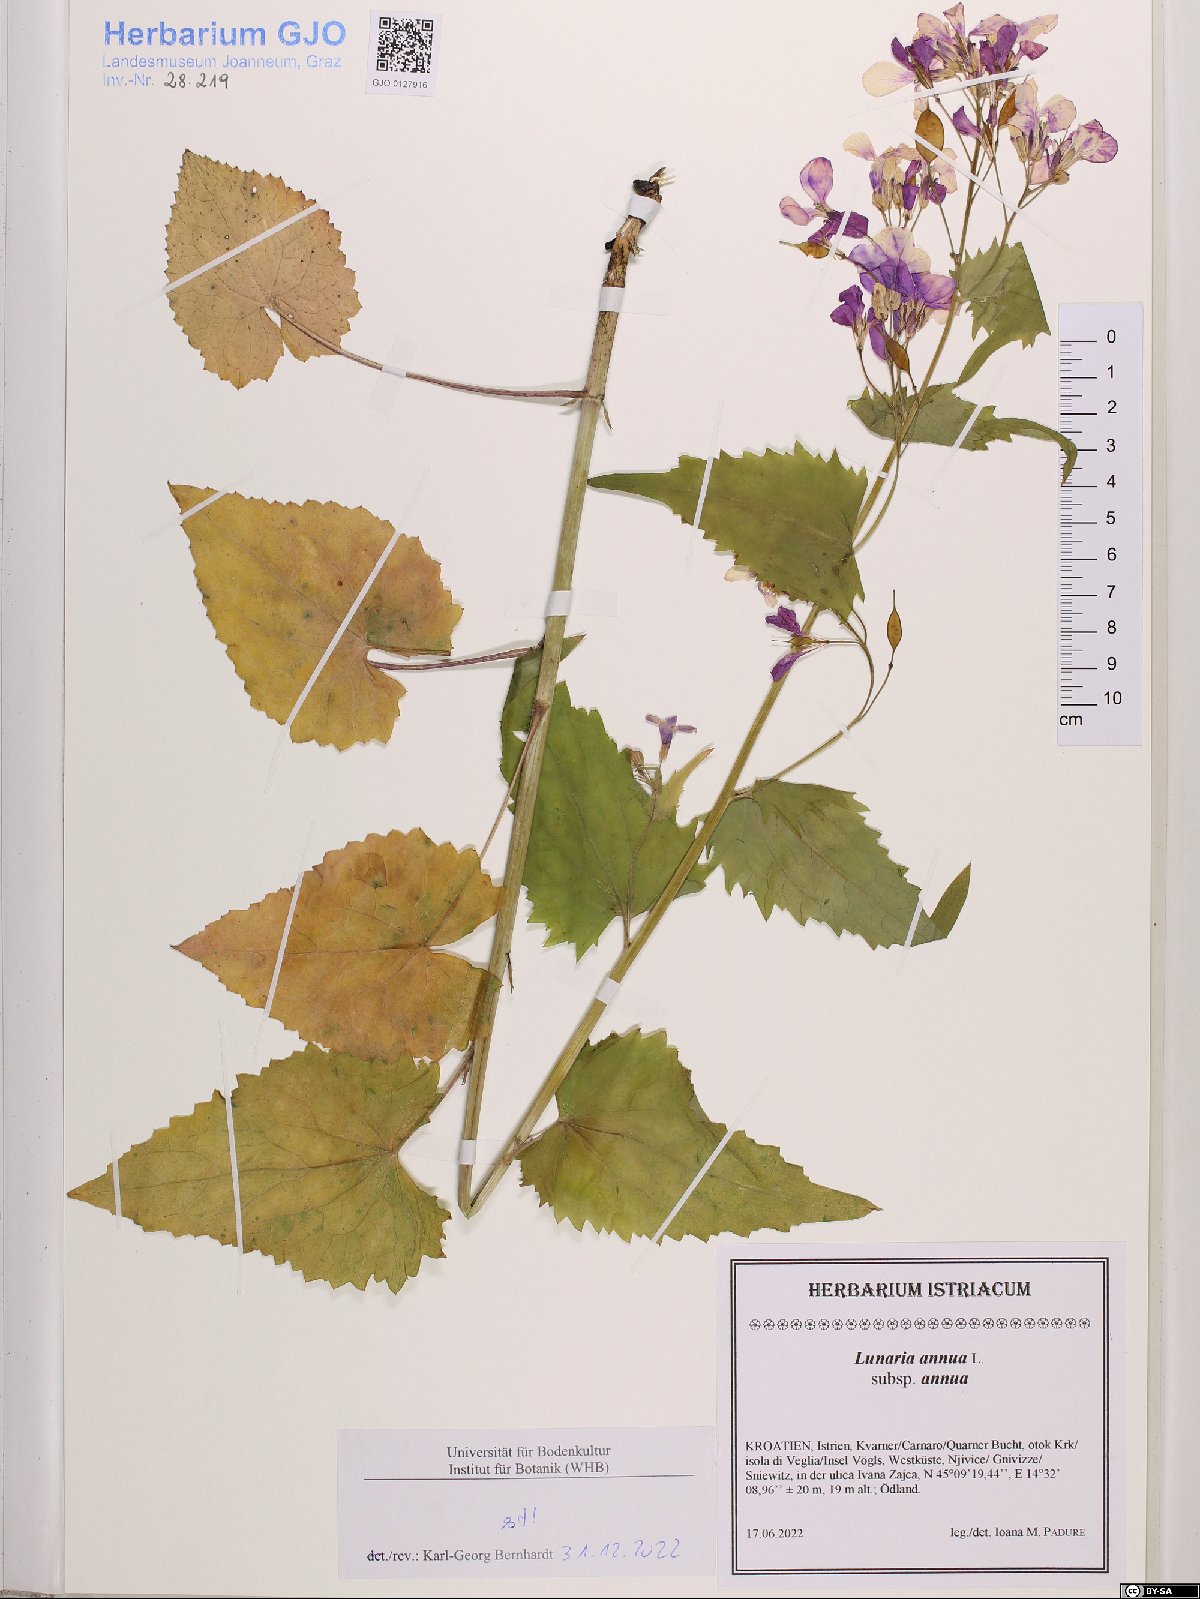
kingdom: Plantae
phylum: Tracheophyta
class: Magnoliopsida
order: Brassicales
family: Brassicaceae
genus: Lunaria
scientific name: Lunaria annua
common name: Honesty
